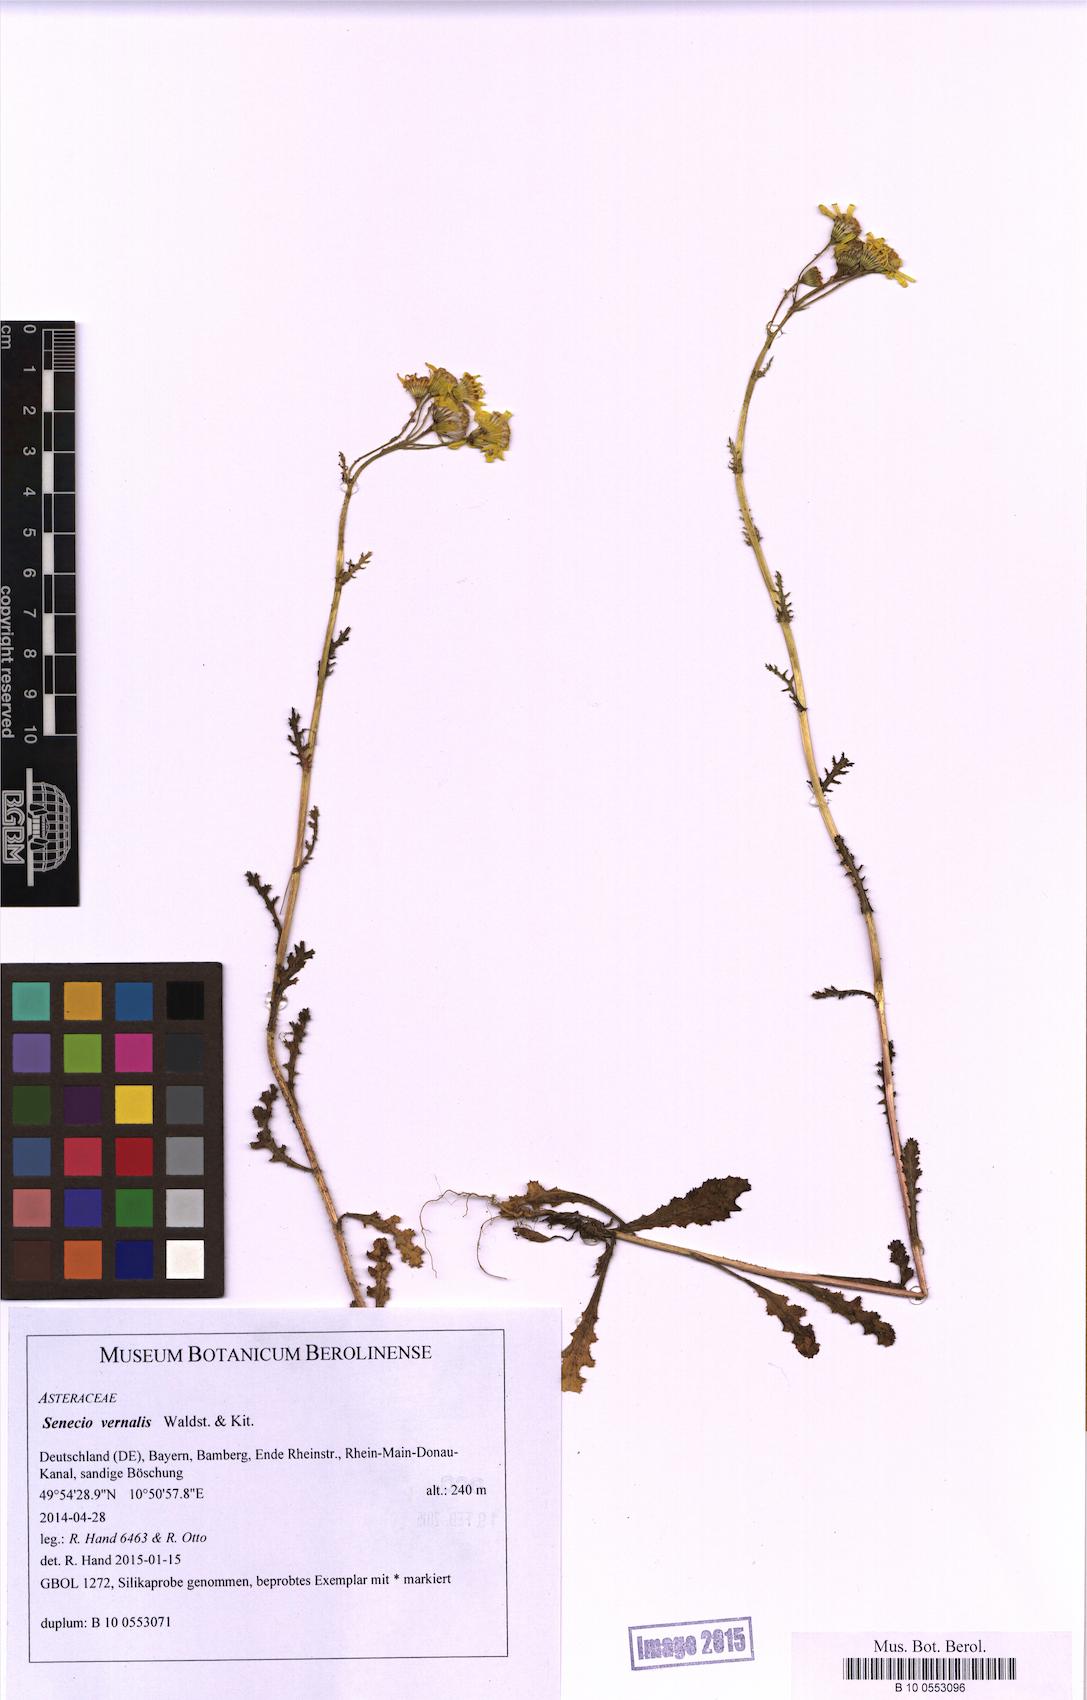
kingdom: Plantae
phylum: Tracheophyta
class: Magnoliopsida
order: Asterales
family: Asteraceae
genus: Senecio
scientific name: Senecio vernalis
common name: Eastern groundsel
